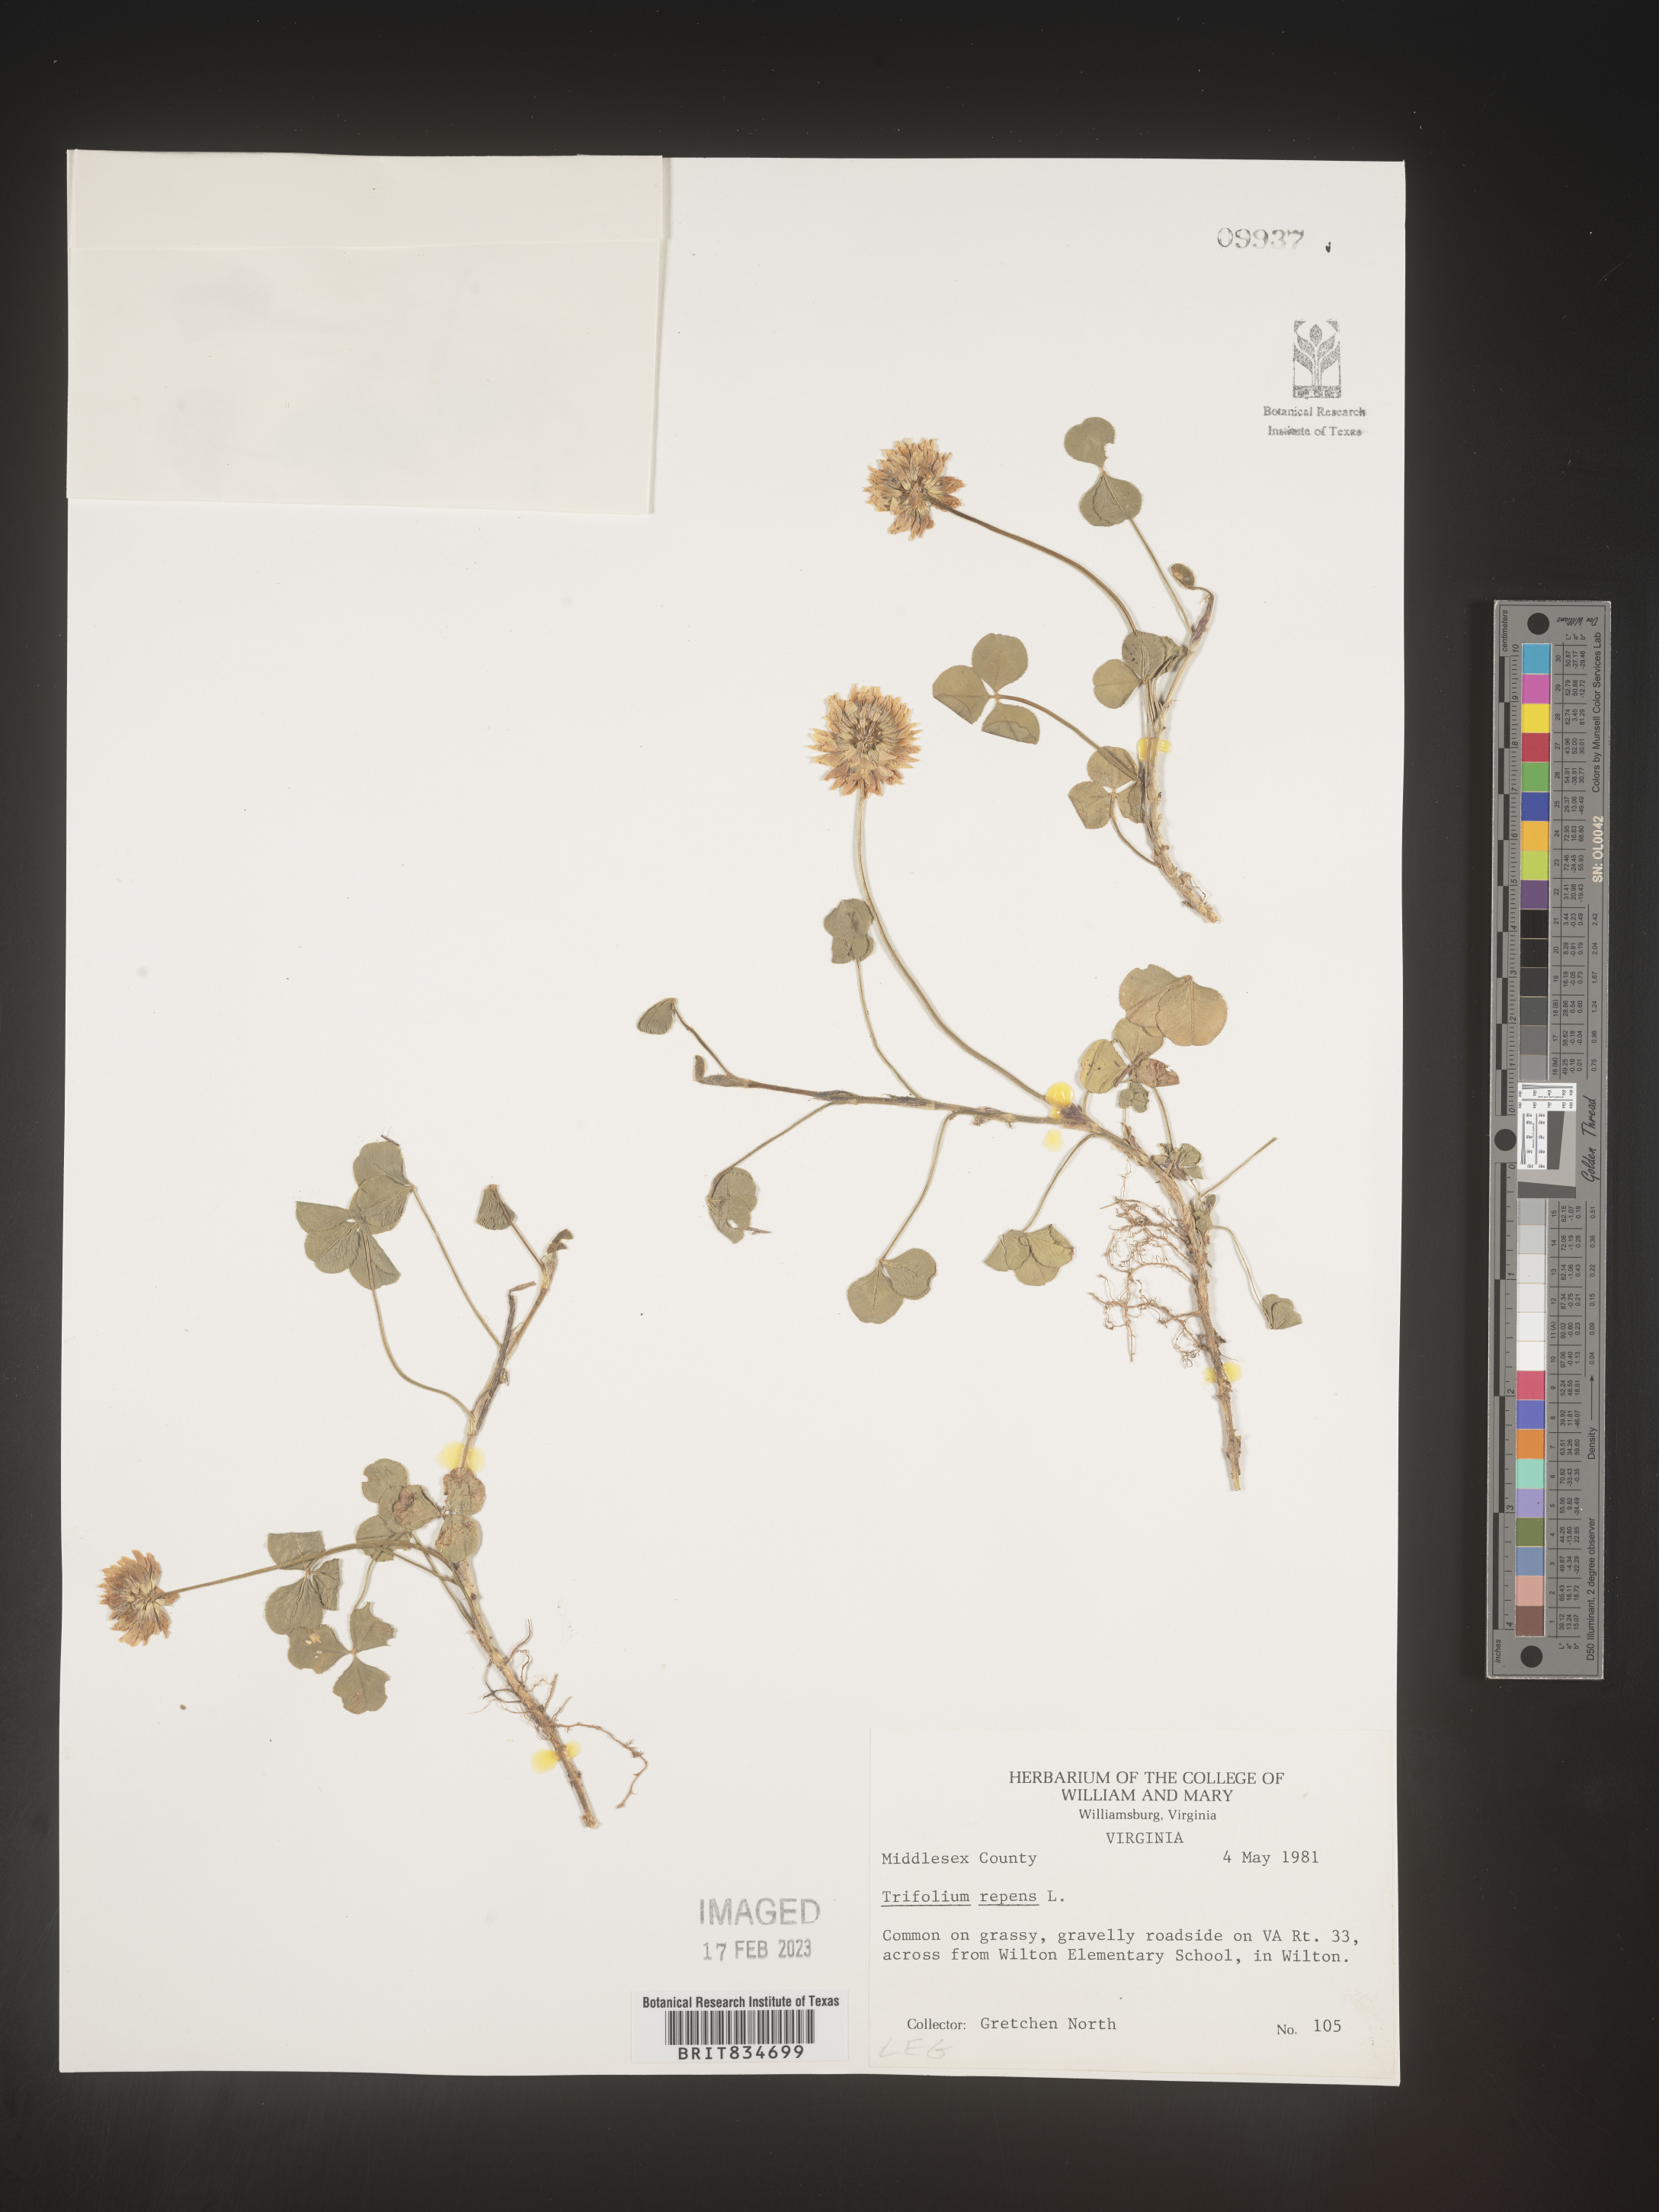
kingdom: Plantae
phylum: Tracheophyta
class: Magnoliopsida
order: Fabales
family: Fabaceae
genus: Trifolium
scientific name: Trifolium repens
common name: White clover
